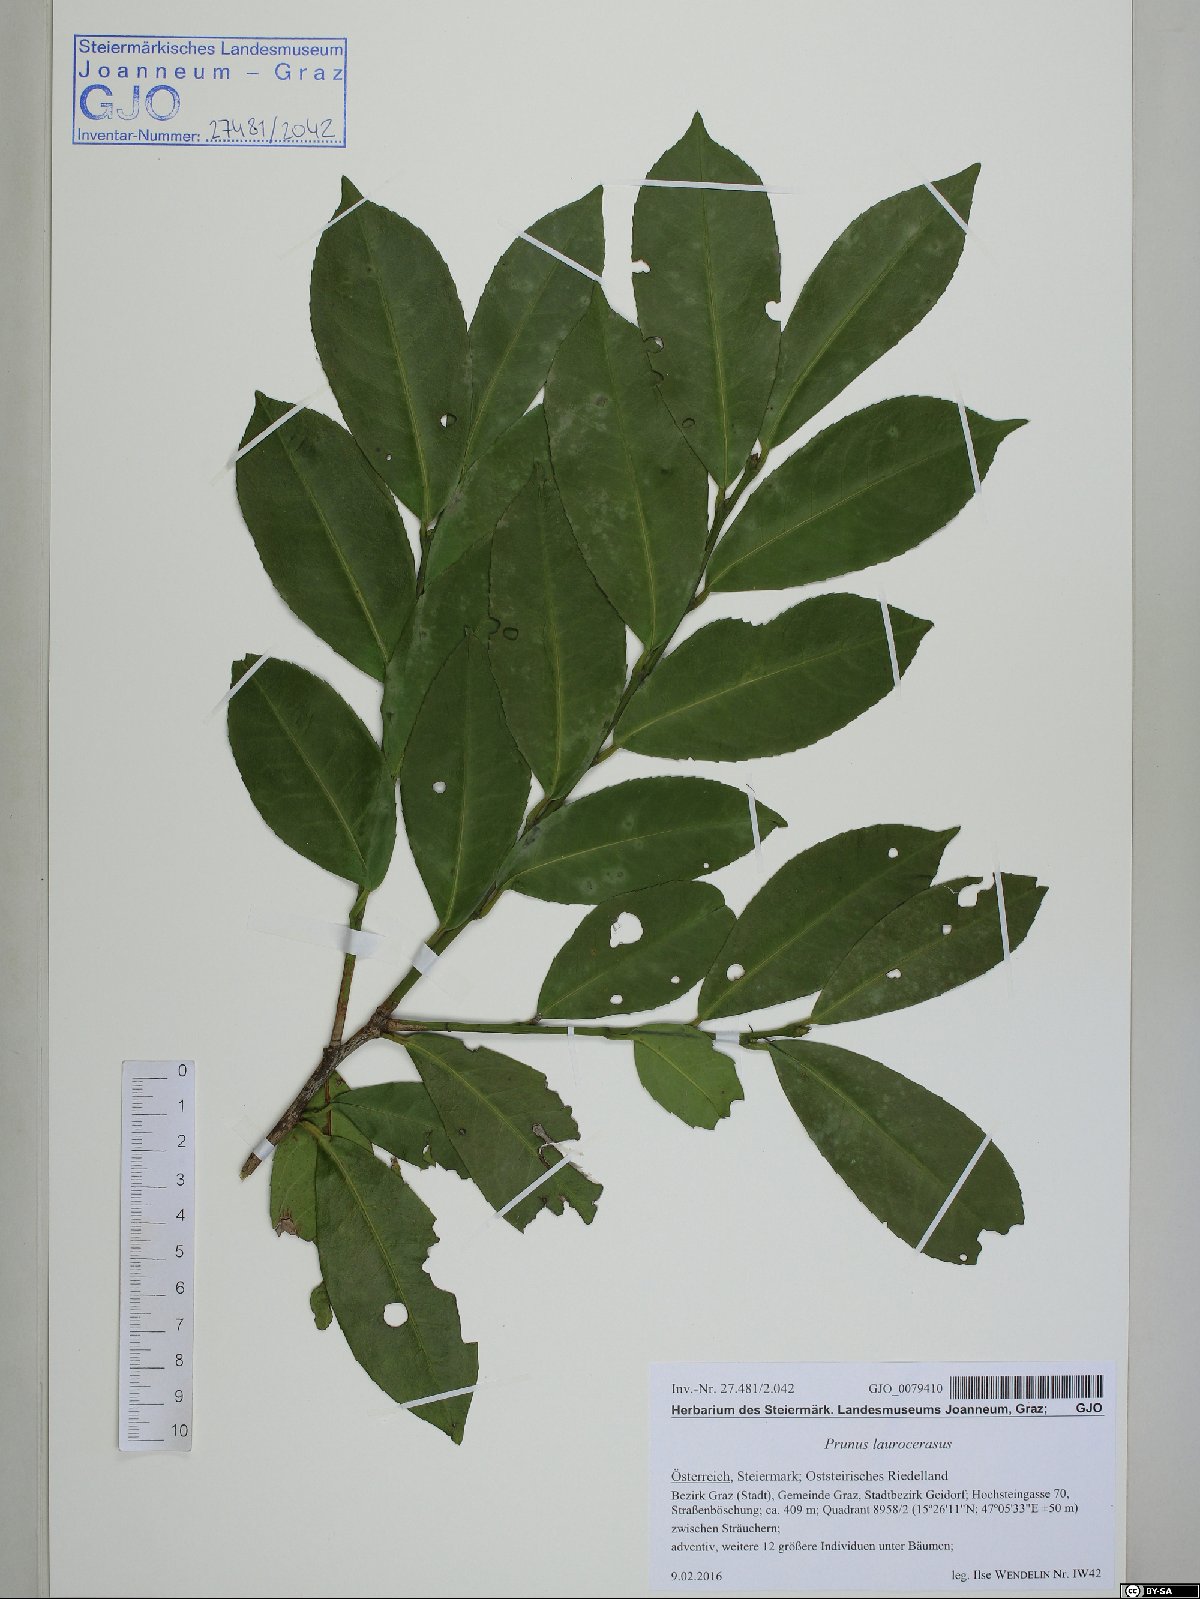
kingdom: Plantae
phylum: Tracheophyta
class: Magnoliopsida
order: Rosales
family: Rosaceae
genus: Prunus
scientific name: Prunus laurocerasus
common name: Cherry laurel
